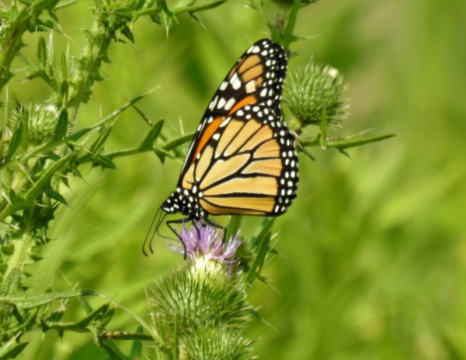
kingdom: Animalia
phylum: Arthropoda
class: Insecta
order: Lepidoptera
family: Nymphalidae
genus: Danaus
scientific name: Danaus plexippus
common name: Monarch
